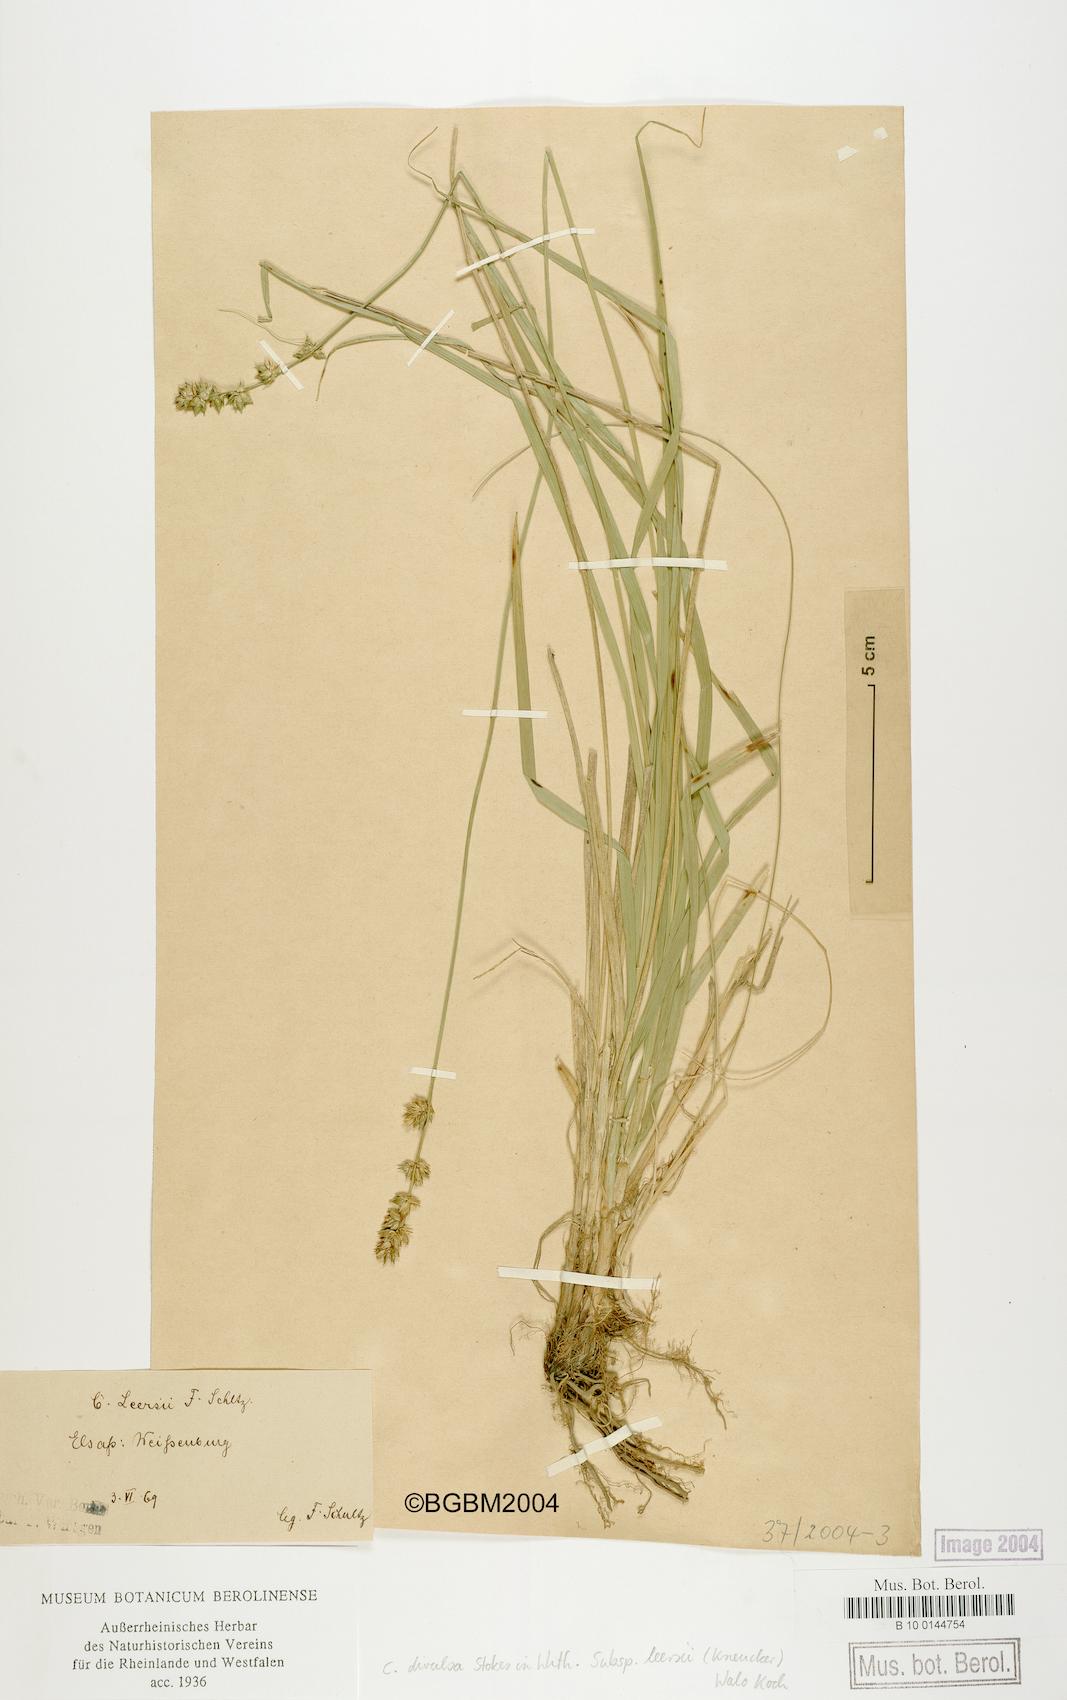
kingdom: Plantae
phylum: Tracheophyta
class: Liliopsida
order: Poales
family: Cyperaceae
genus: Carex
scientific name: Carex leersii
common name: Leers' sedge
